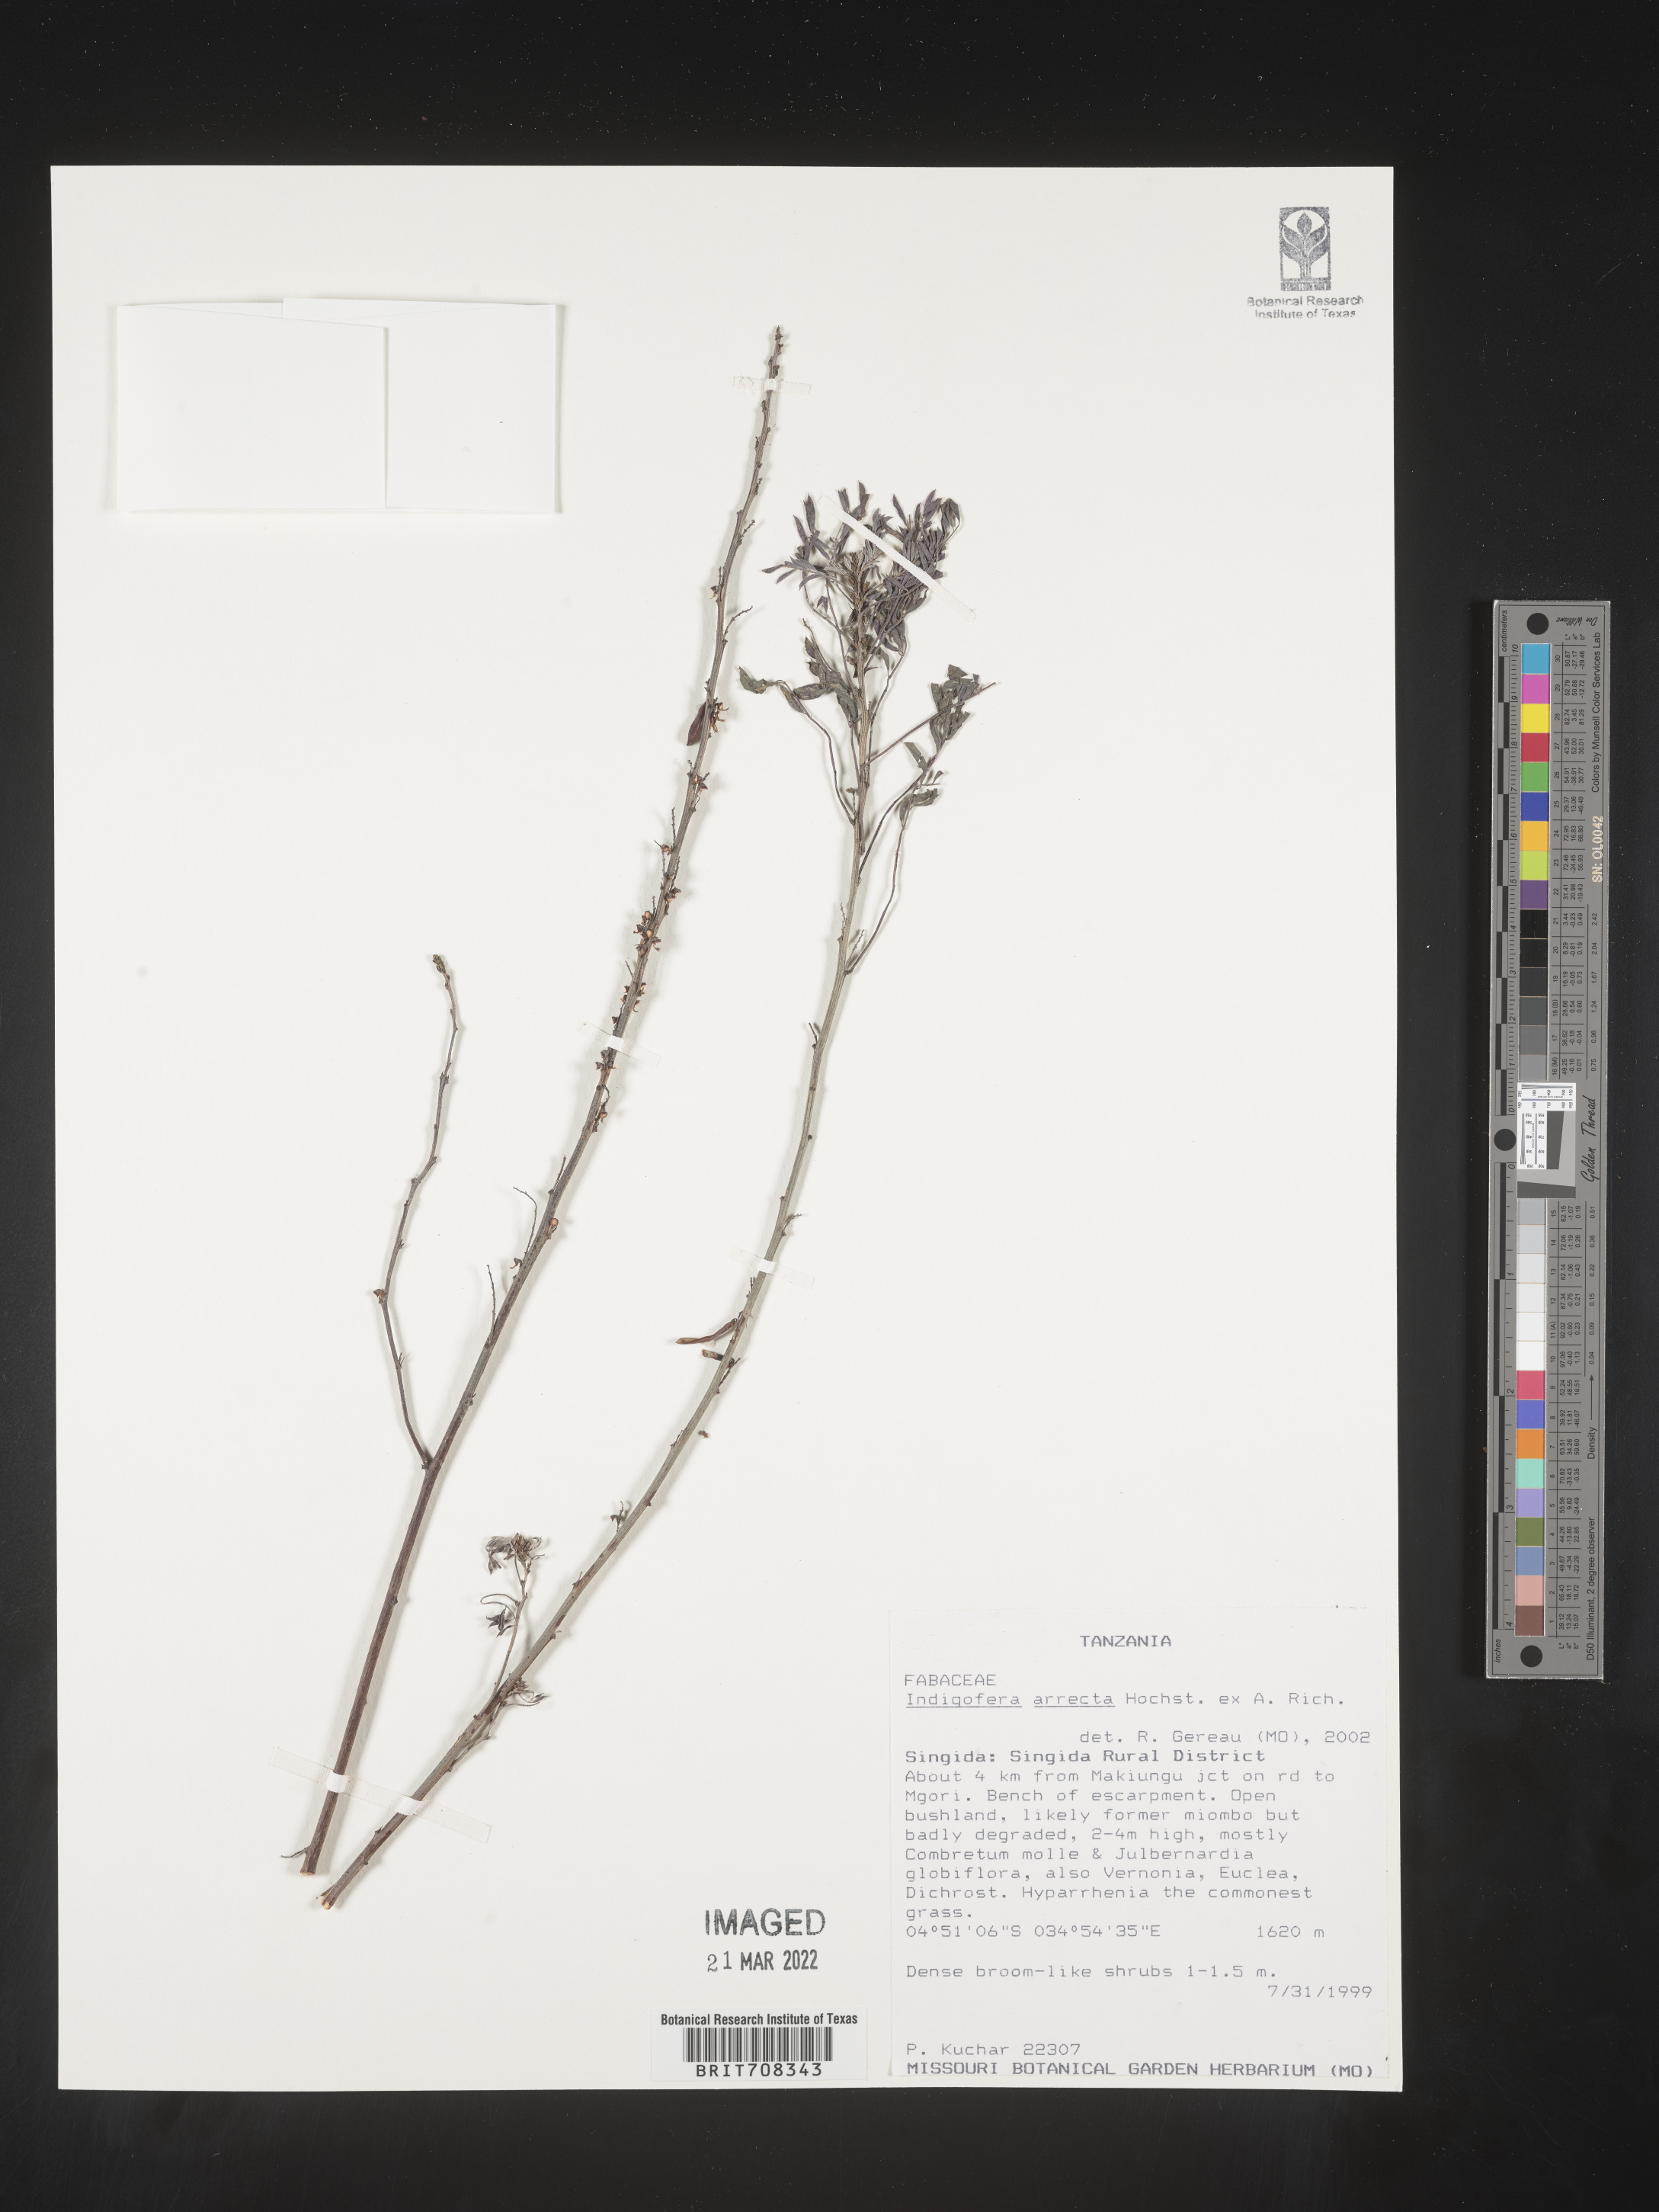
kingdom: Plantae
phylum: Tracheophyta
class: Magnoliopsida
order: Fabales
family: Fabaceae
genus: Indigofera
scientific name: Indigofera
